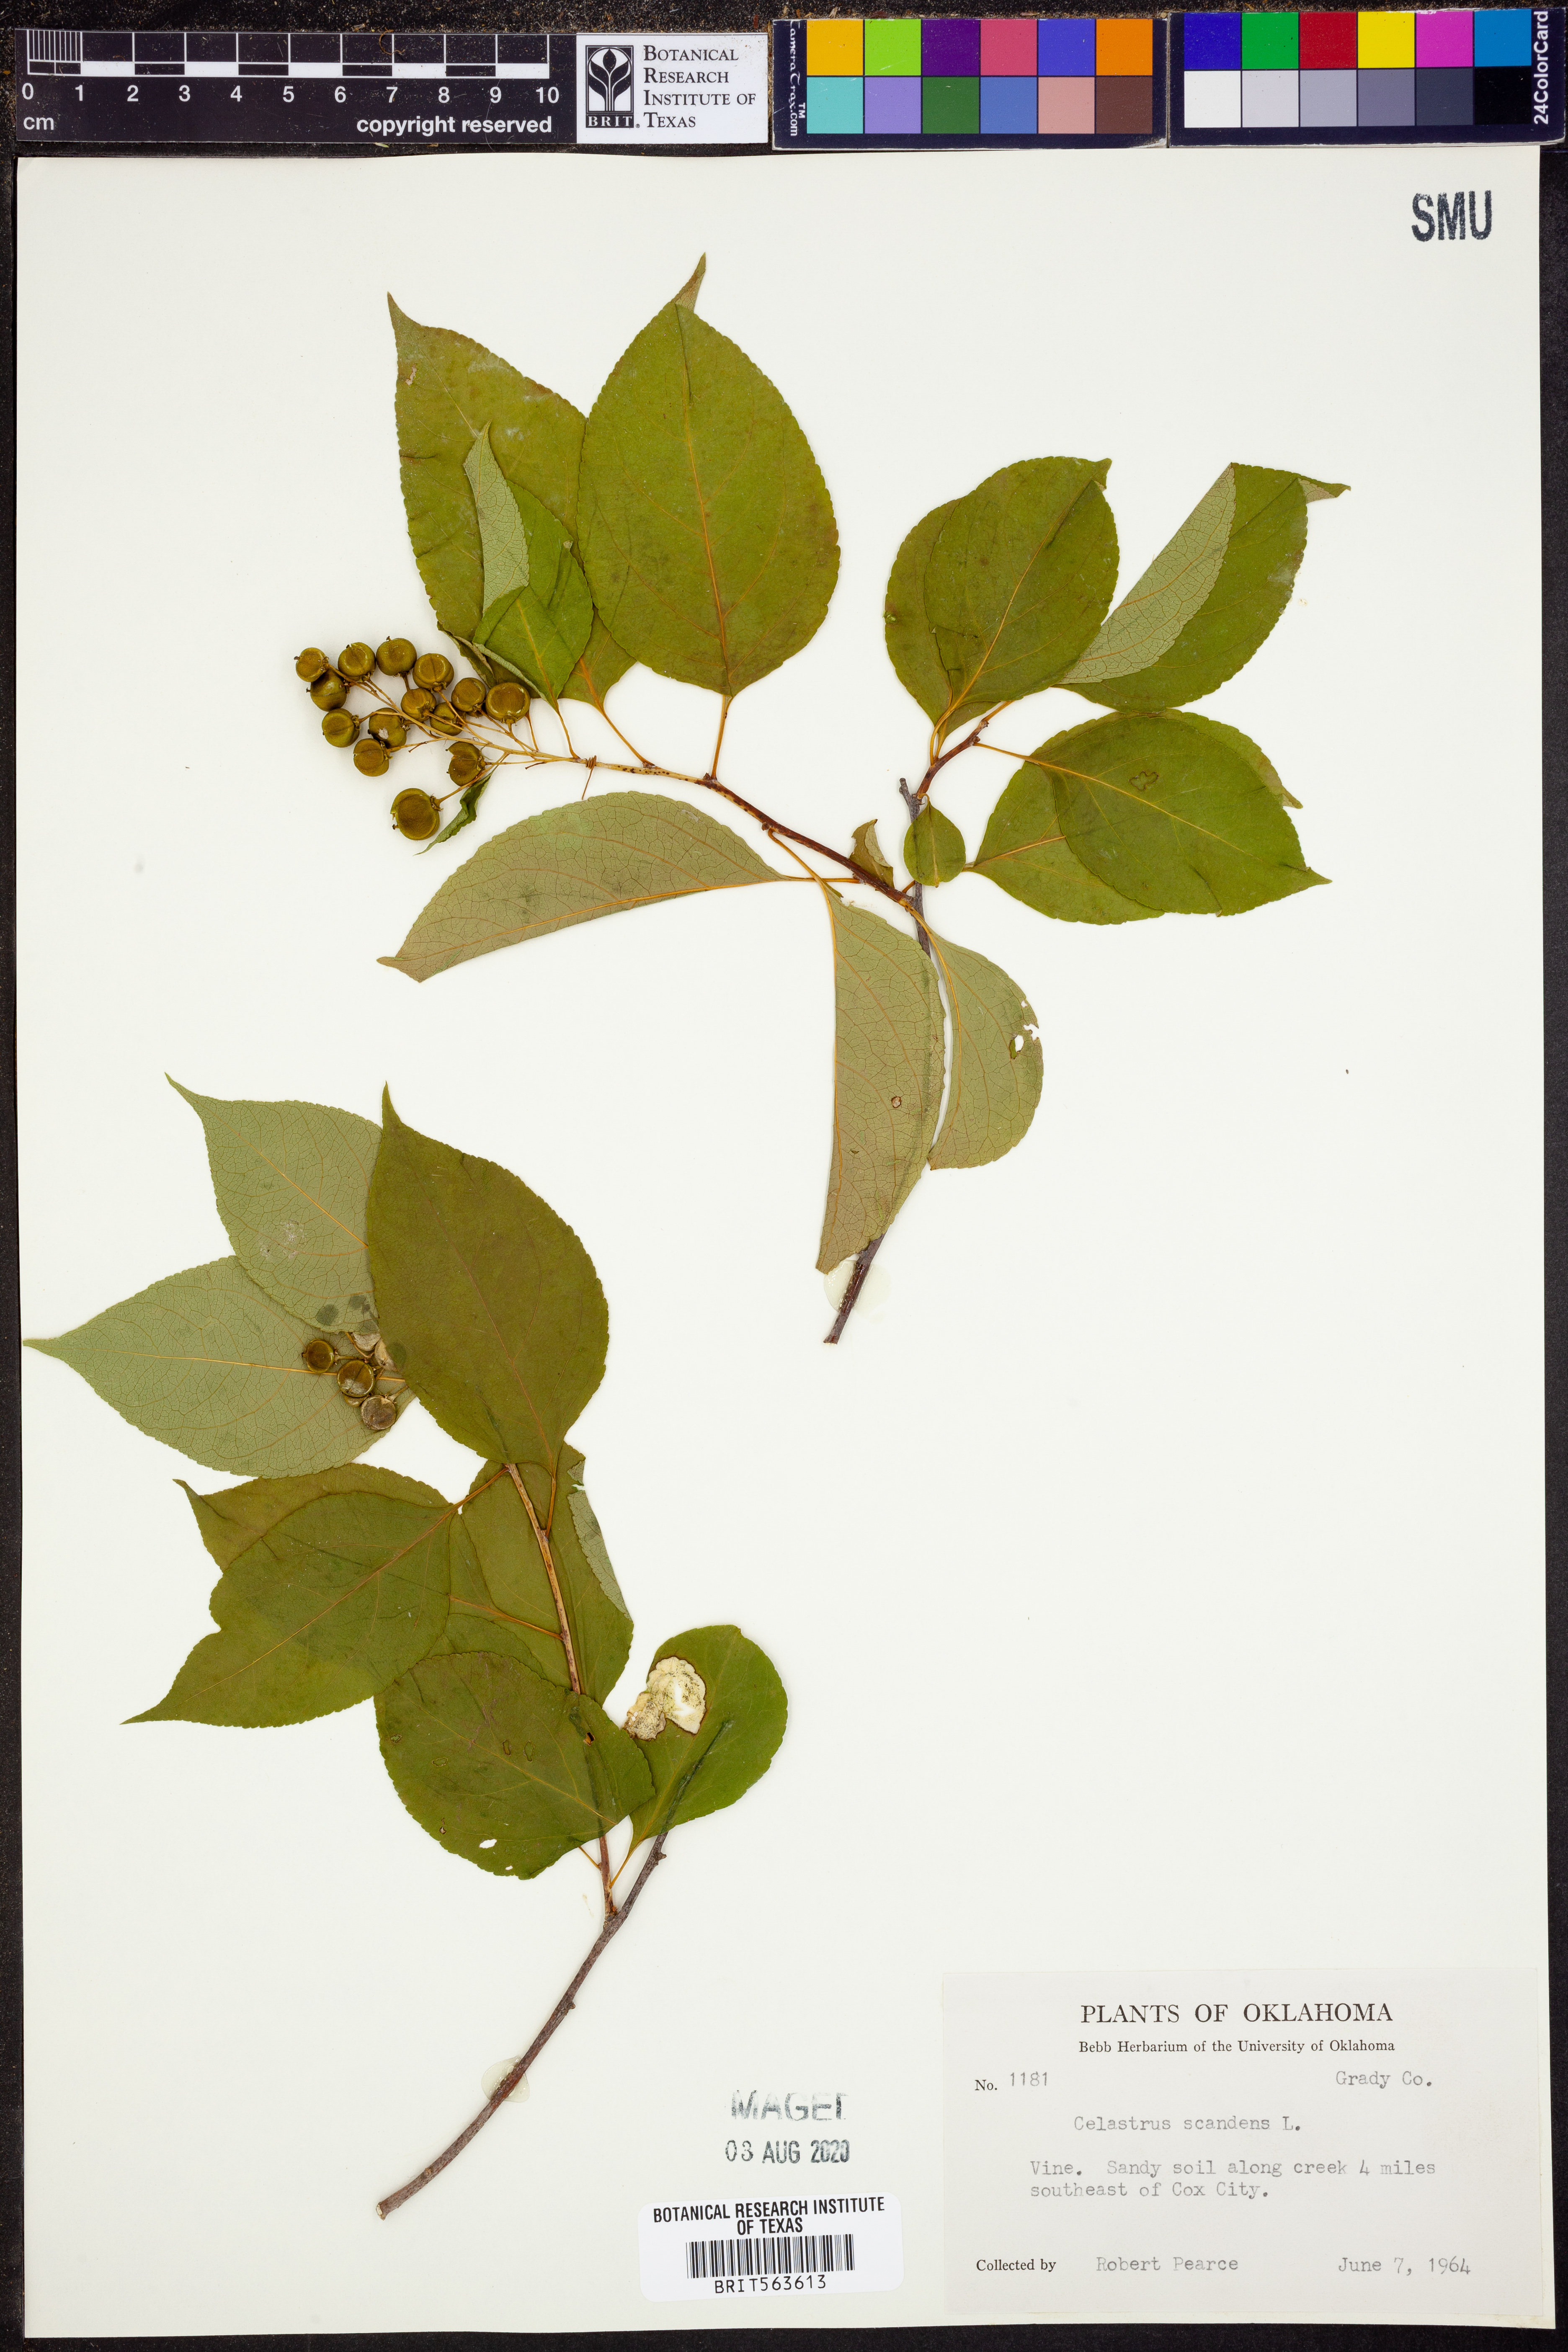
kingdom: Plantae
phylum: Tracheophyta
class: Magnoliopsida
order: Celastrales
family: Celastraceae
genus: Celastrus
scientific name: Celastrus scandens
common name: American bittersweet
